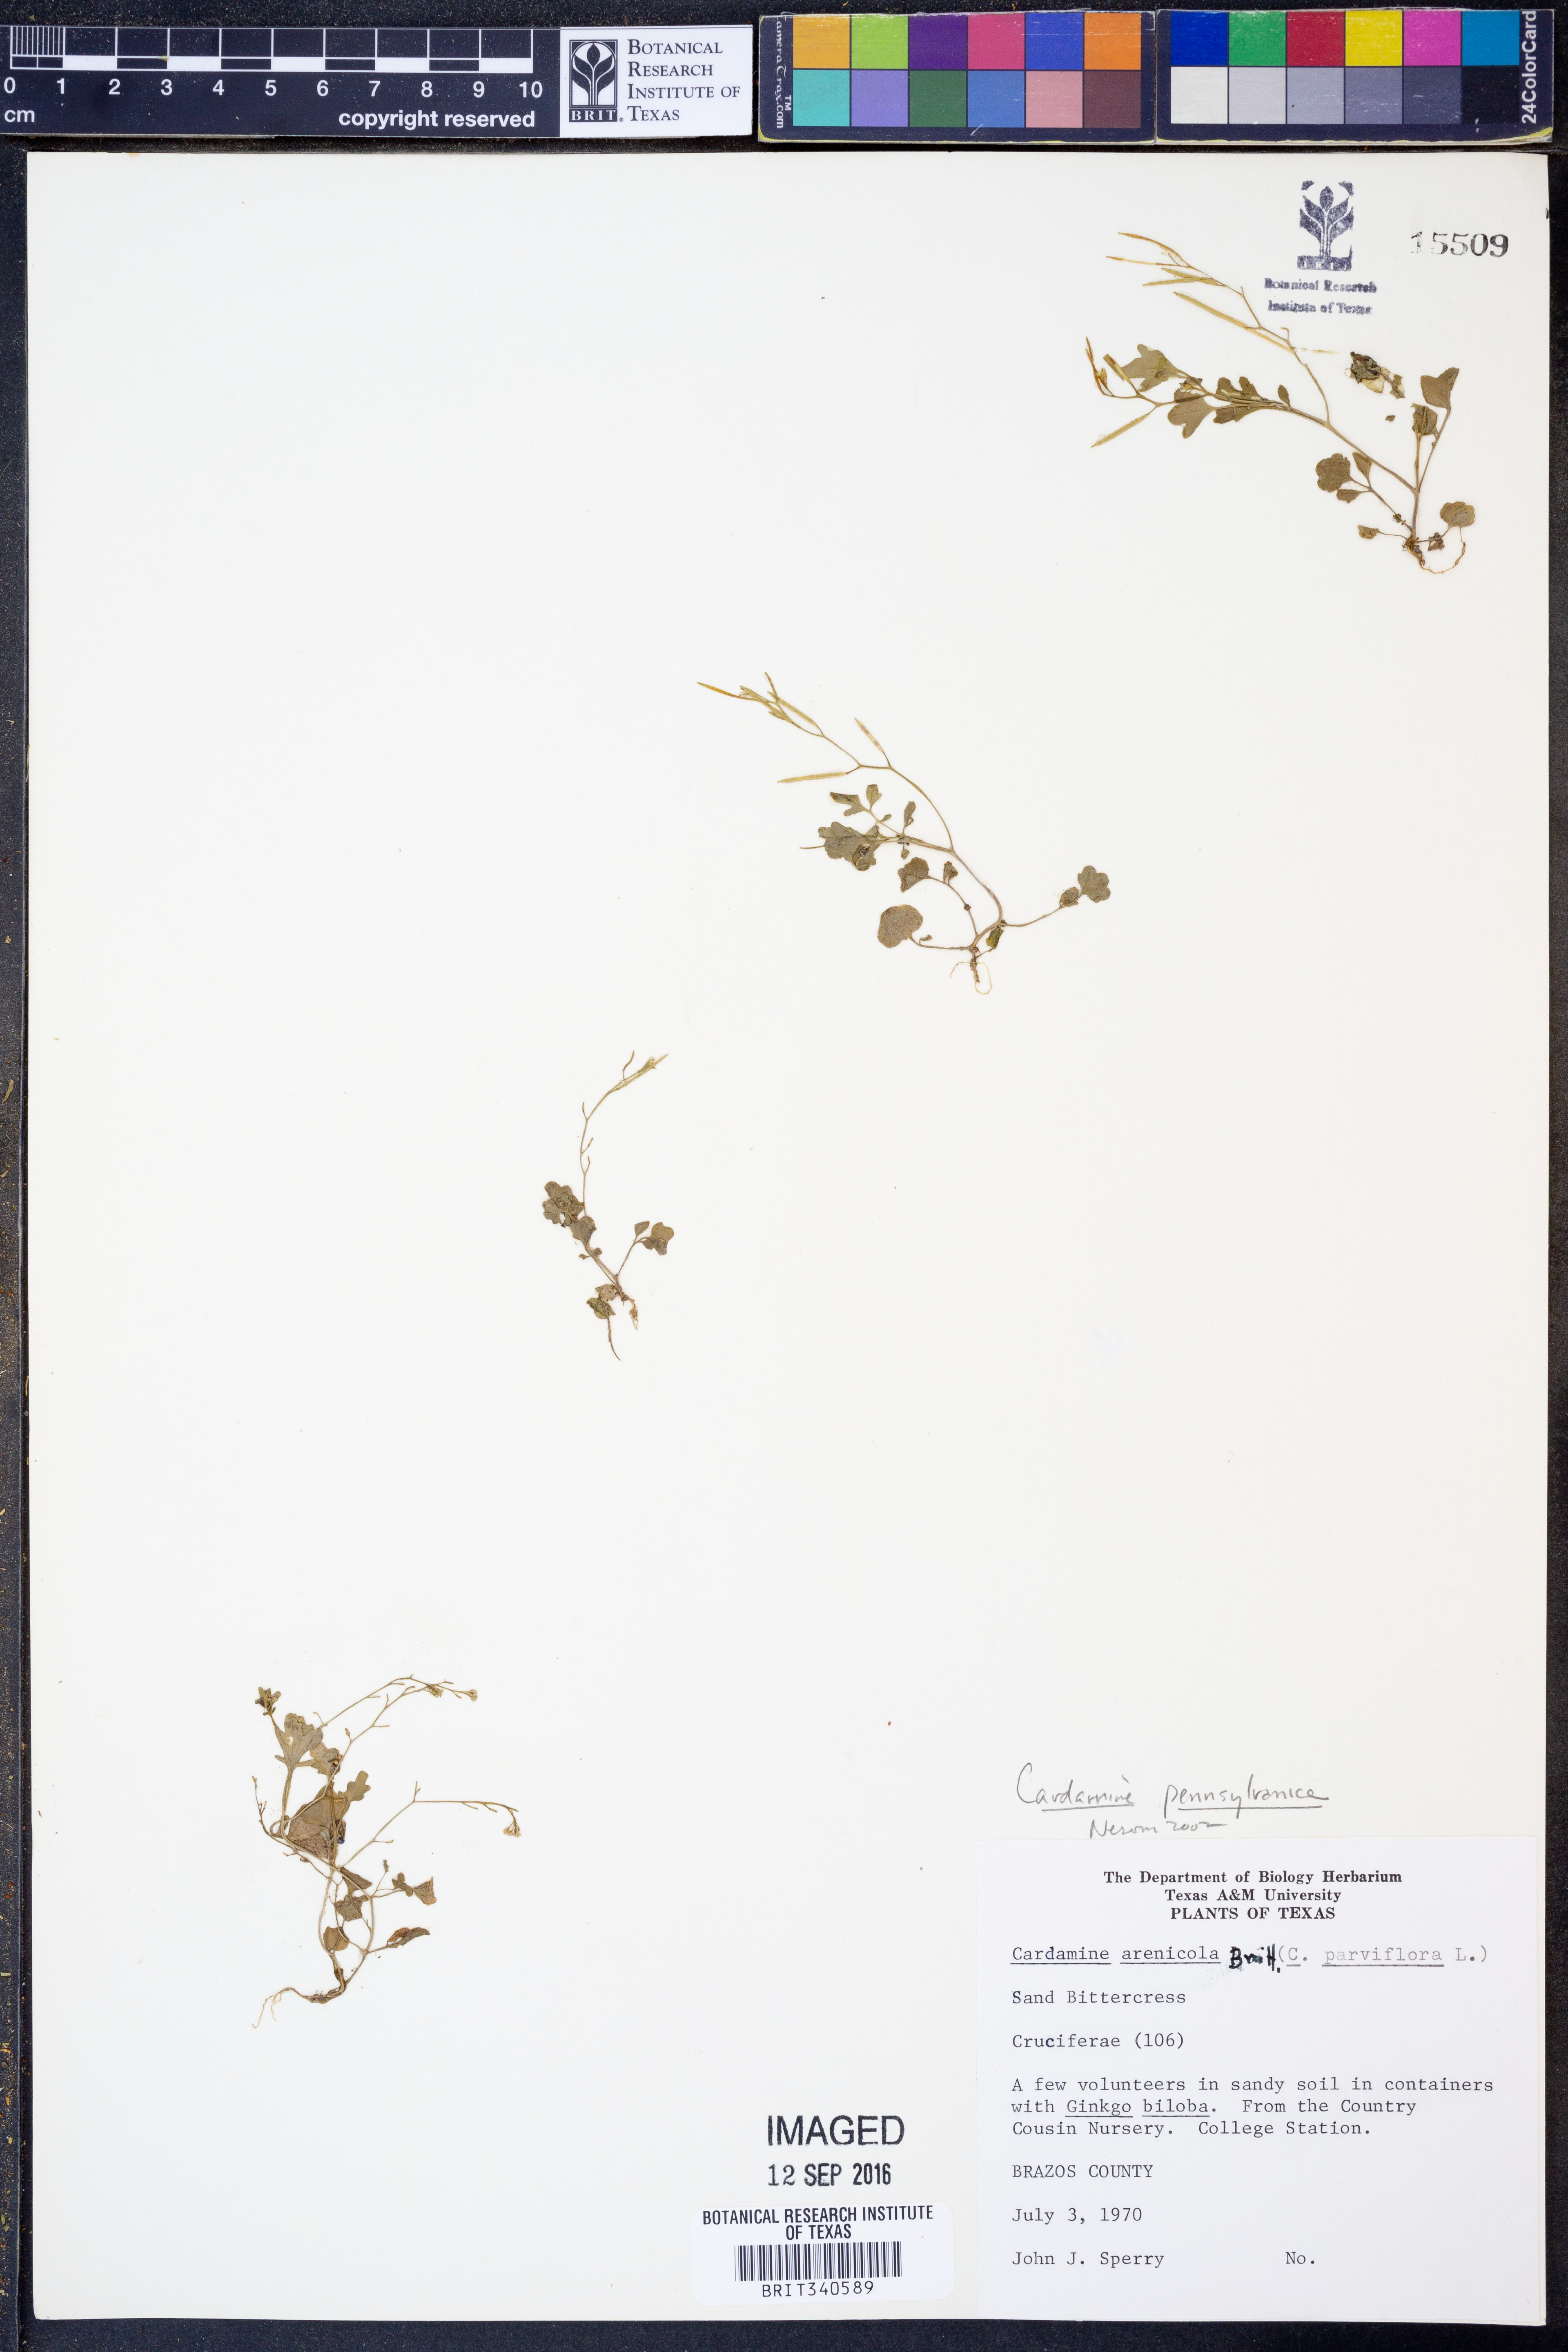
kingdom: Plantae
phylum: Tracheophyta
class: Magnoliopsida
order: Brassicales
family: Brassicaceae
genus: Cardamine
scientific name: Cardamine pensylvanica
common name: Pennsylvania bittercress
